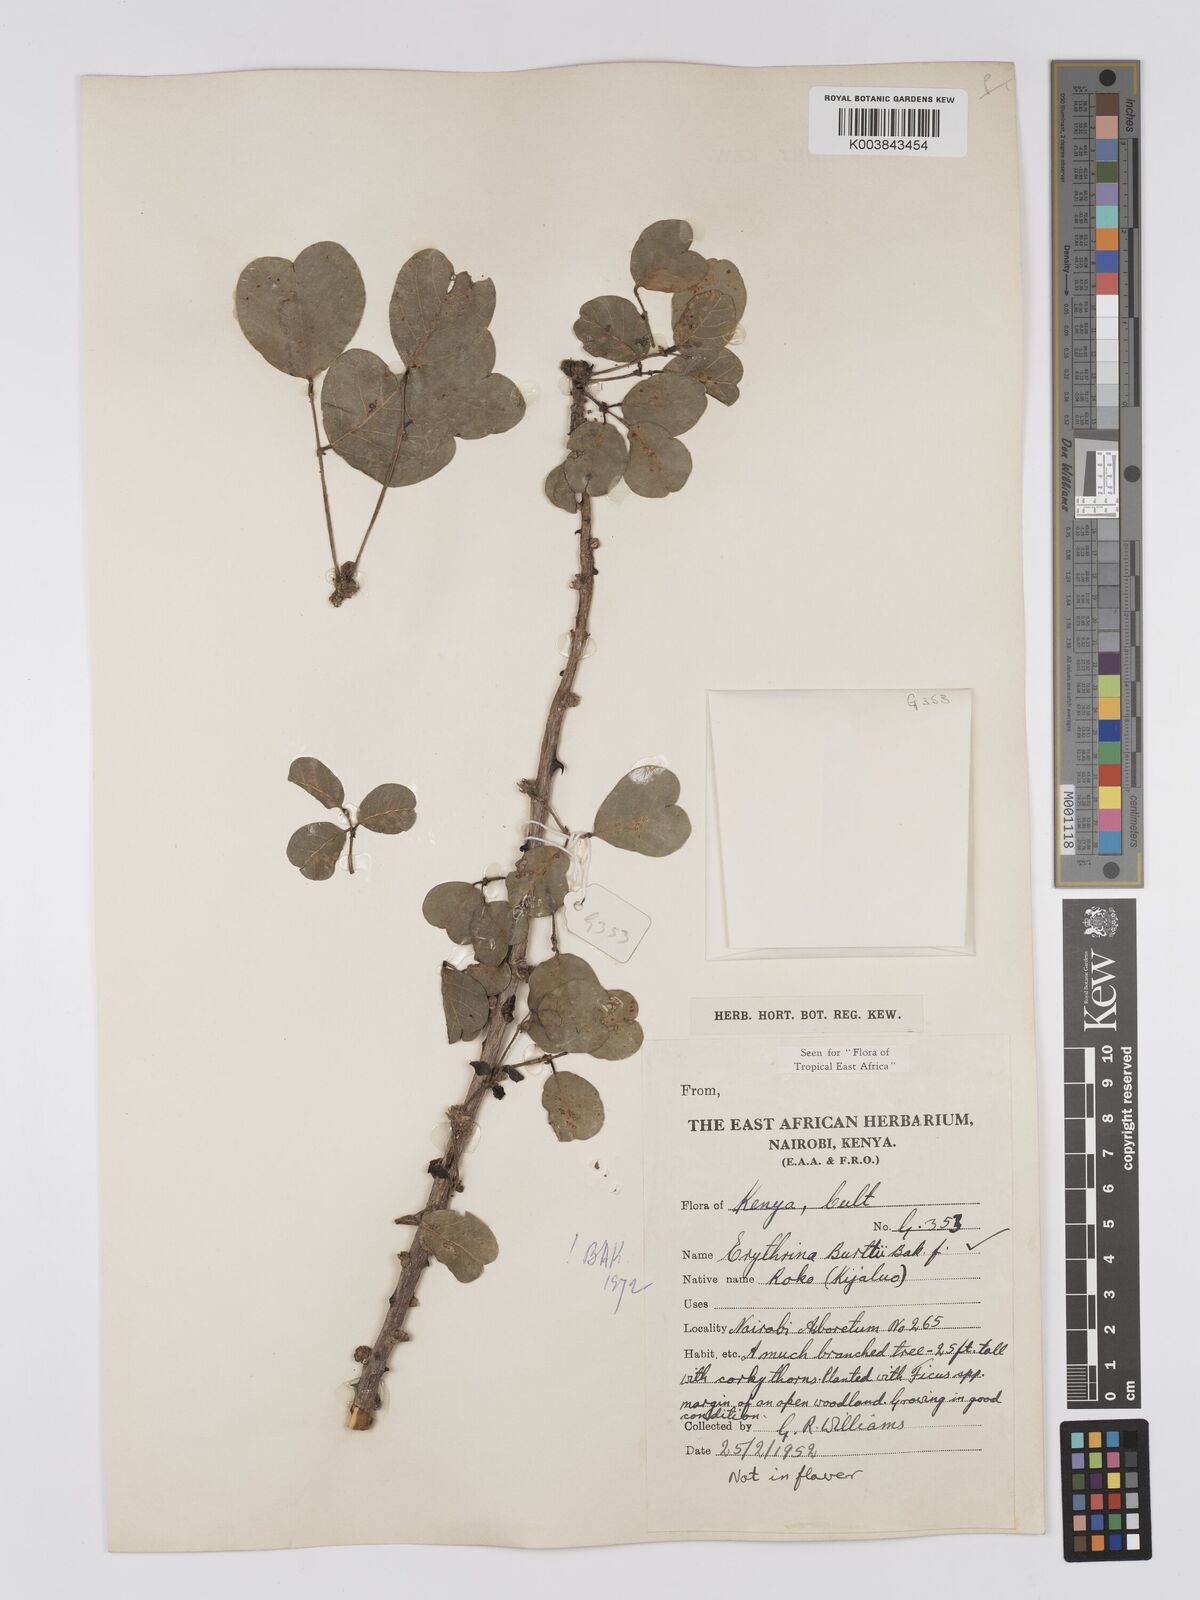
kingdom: Plantae
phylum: Tracheophyta
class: Magnoliopsida
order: Fabales
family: Fabaceae
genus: Erythrina
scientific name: Erythrina burttii
